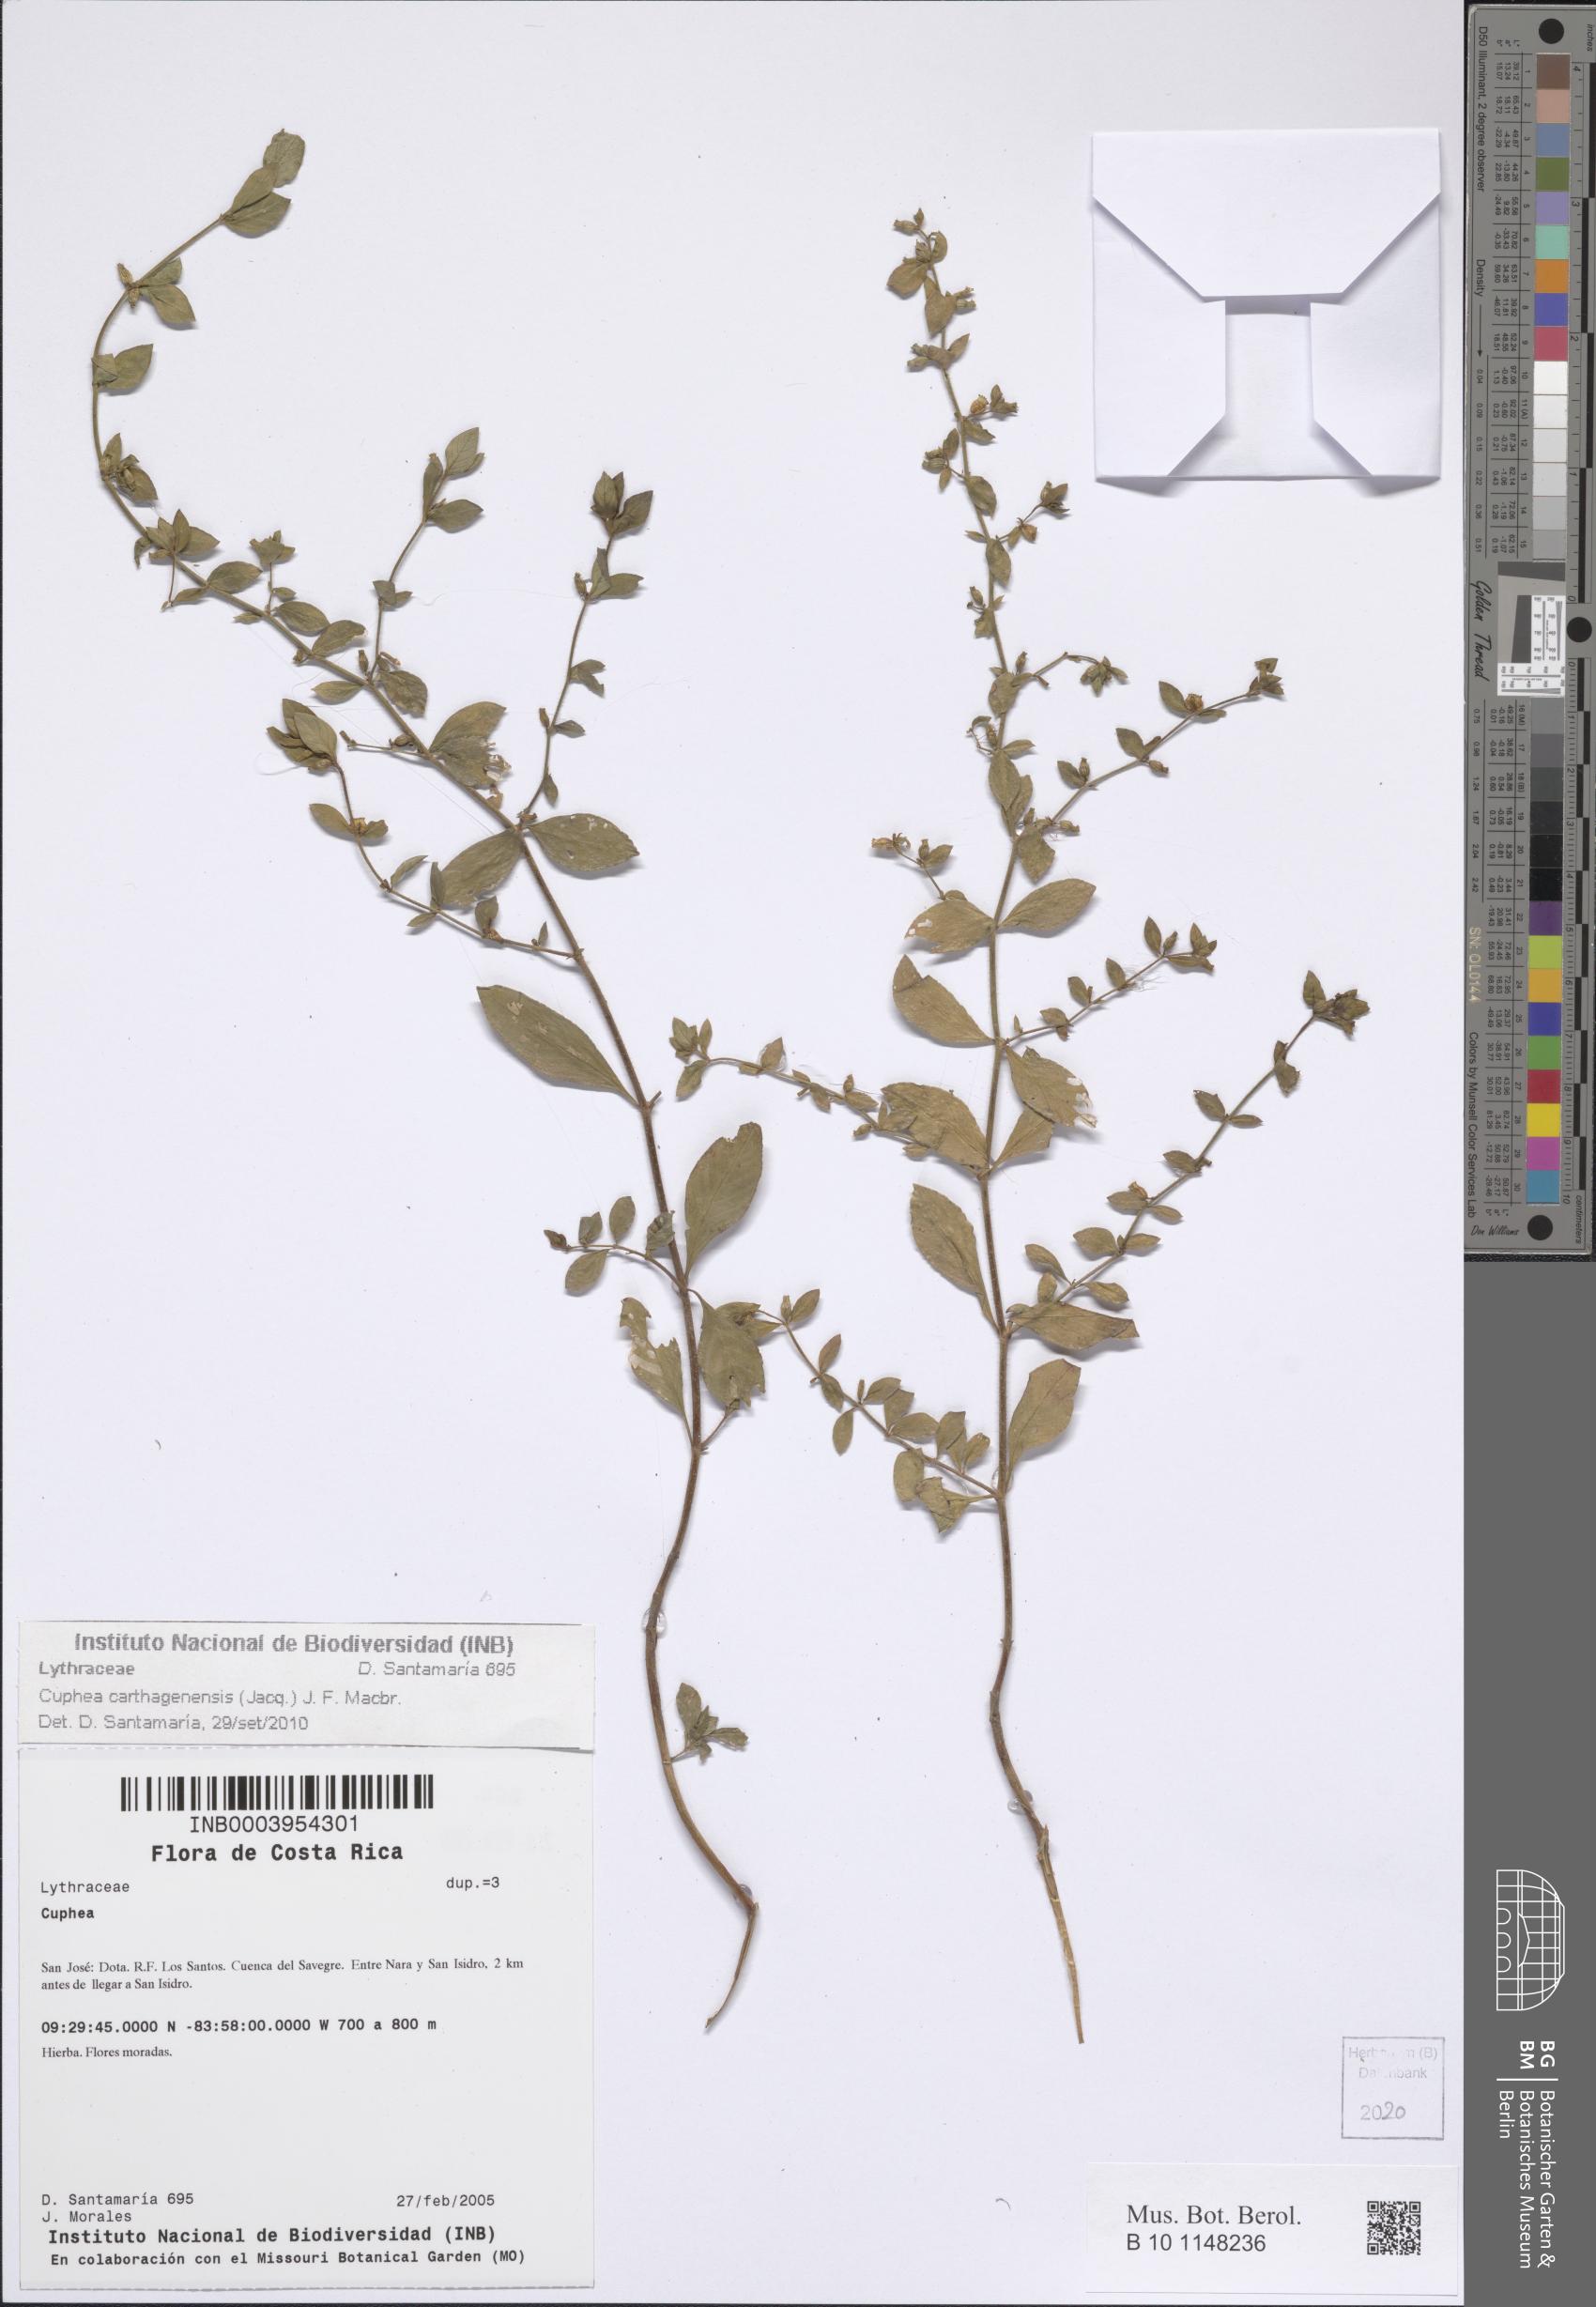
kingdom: Plantae
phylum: Tracheophyta
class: Magnoliopsida
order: Myrtales
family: Lythraceae
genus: Cuphea
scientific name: Cuphea carthagenensis
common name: Colombian waxweed
